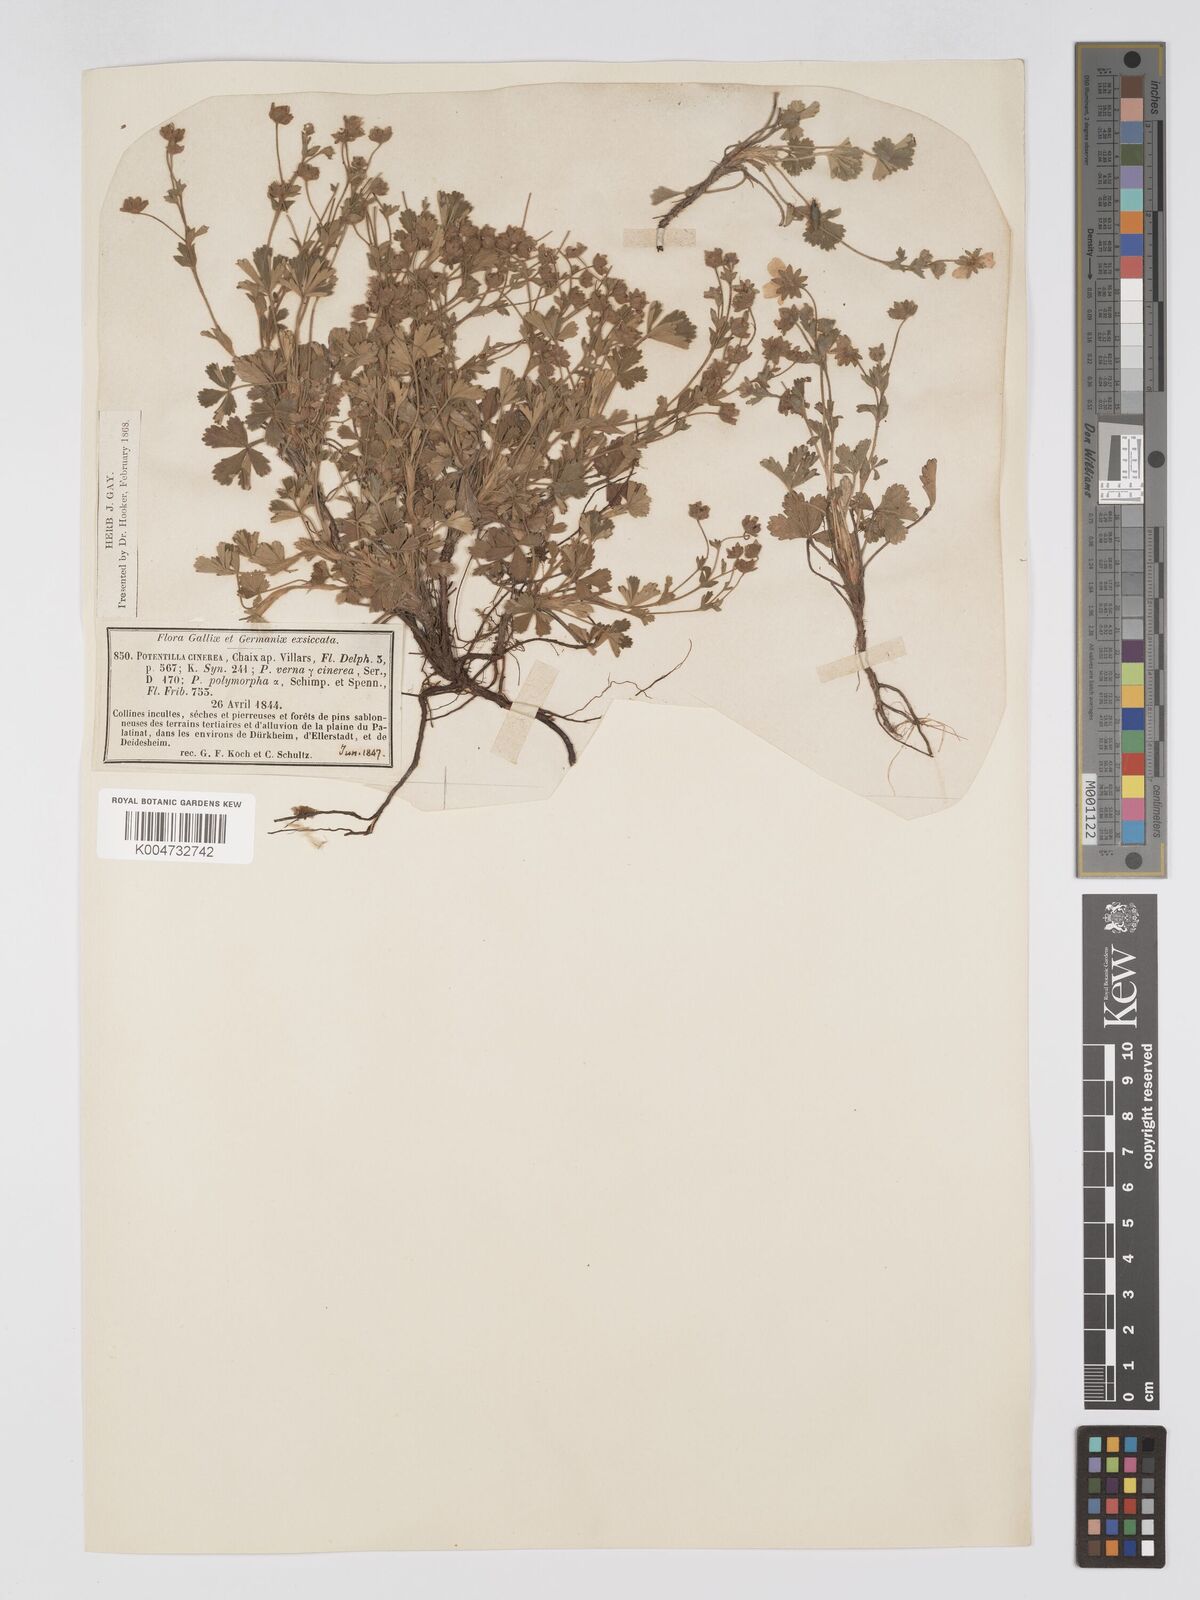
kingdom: Plantae
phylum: Tracheophyta
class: Magnoliopsida
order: Rosales
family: Rosaceae
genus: Potentilla
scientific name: Potentilla
